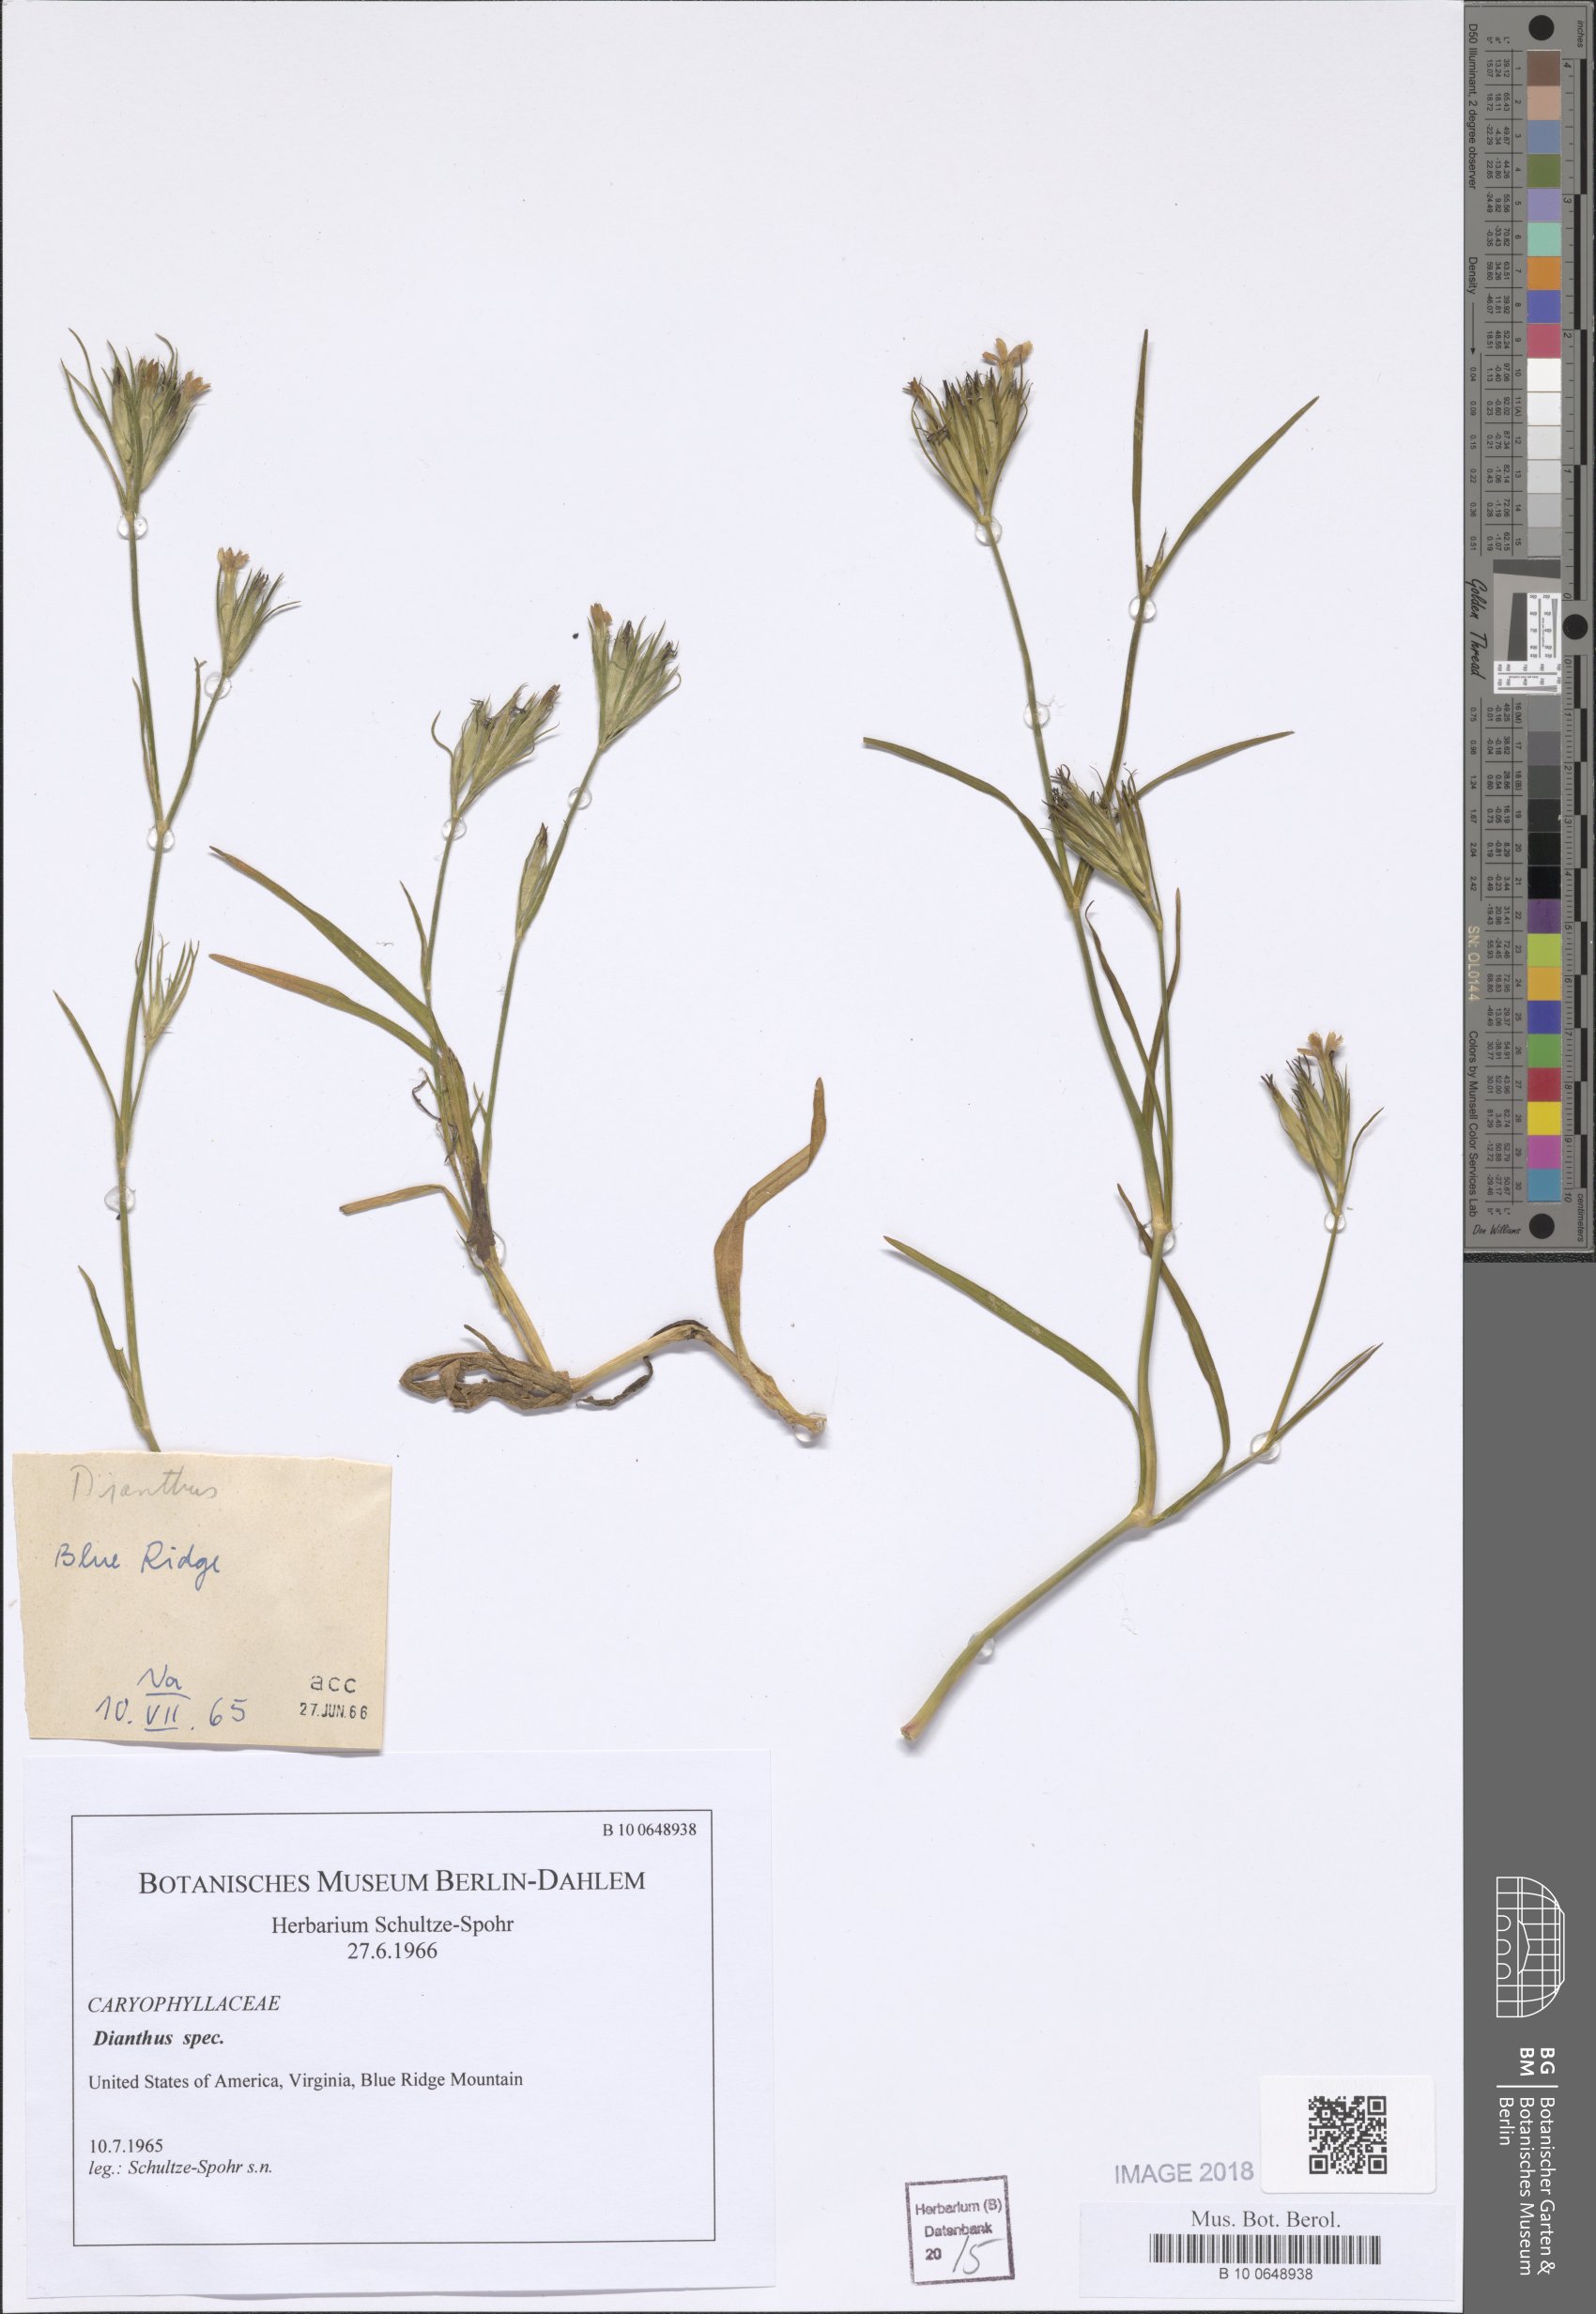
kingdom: Plantae
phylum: Tracheophyta
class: Magnoliopsida
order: Caryophyllales
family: Caryophyllaceae
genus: Dianthus
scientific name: Dianthus
